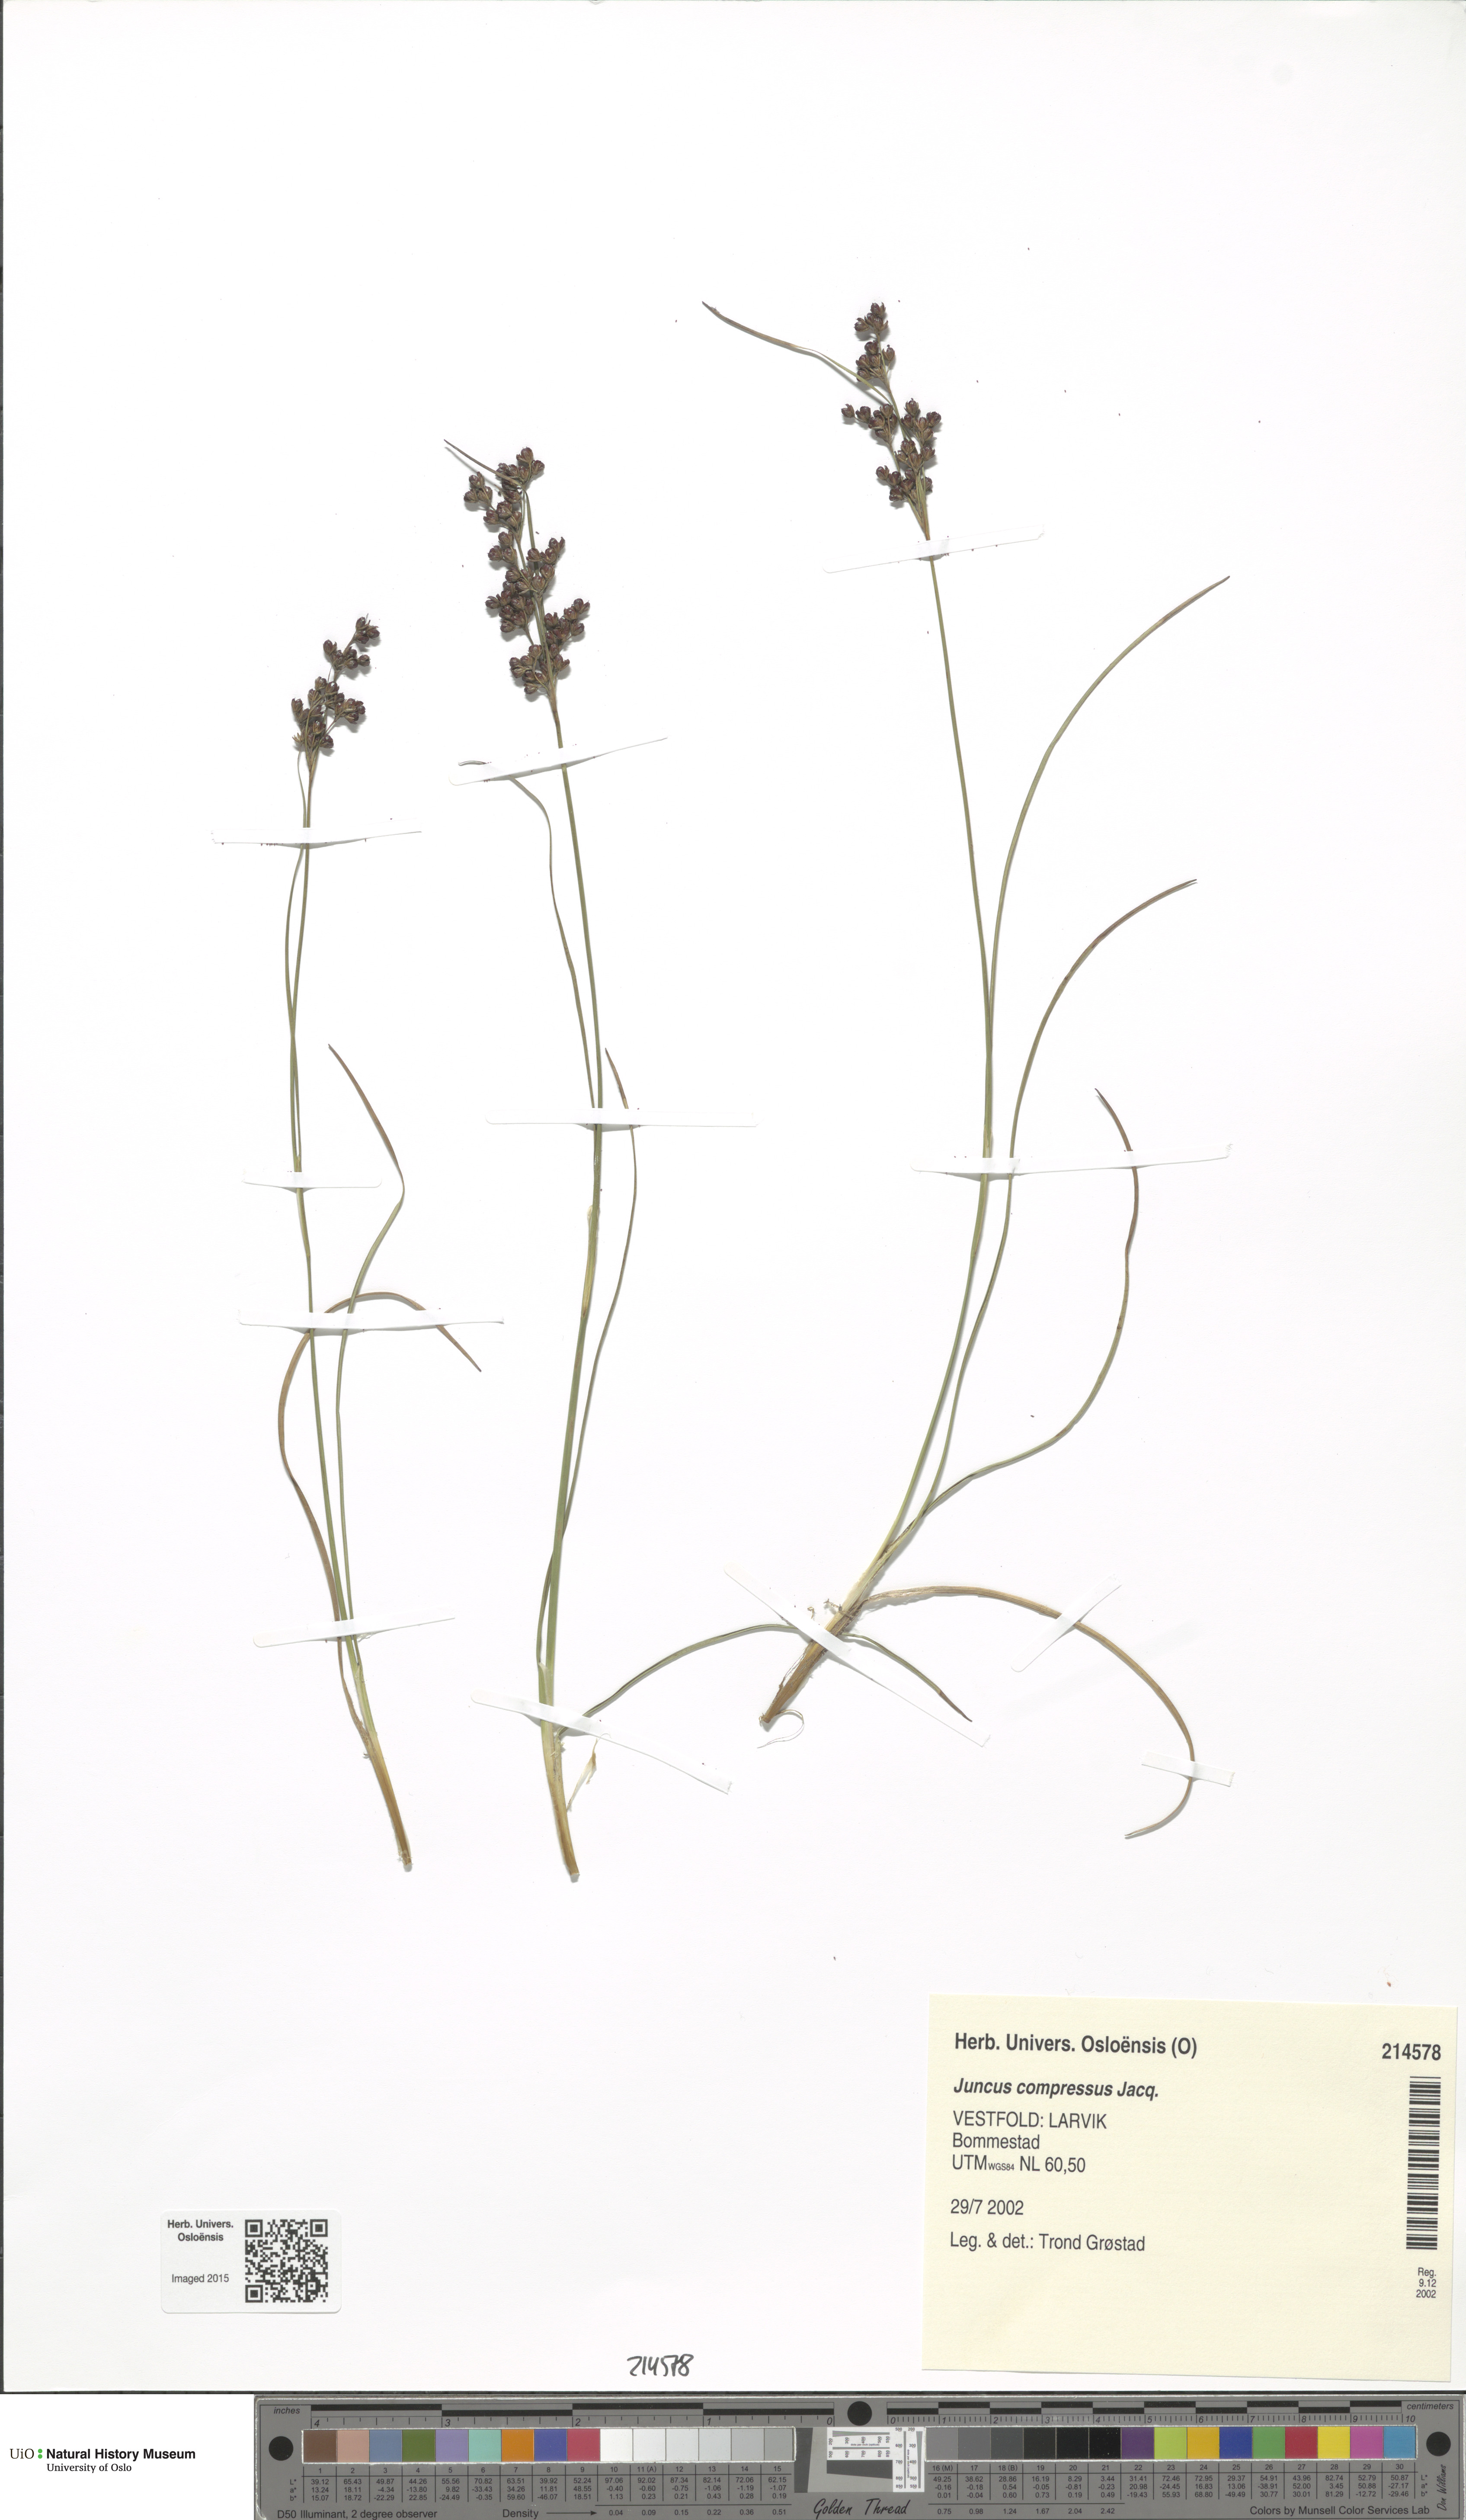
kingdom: Plantae
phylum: Tracheophyta
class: Liliopsida
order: Poales
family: Juncaceae
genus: Juncus
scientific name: Juncus compressus
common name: Round-fruited rush
